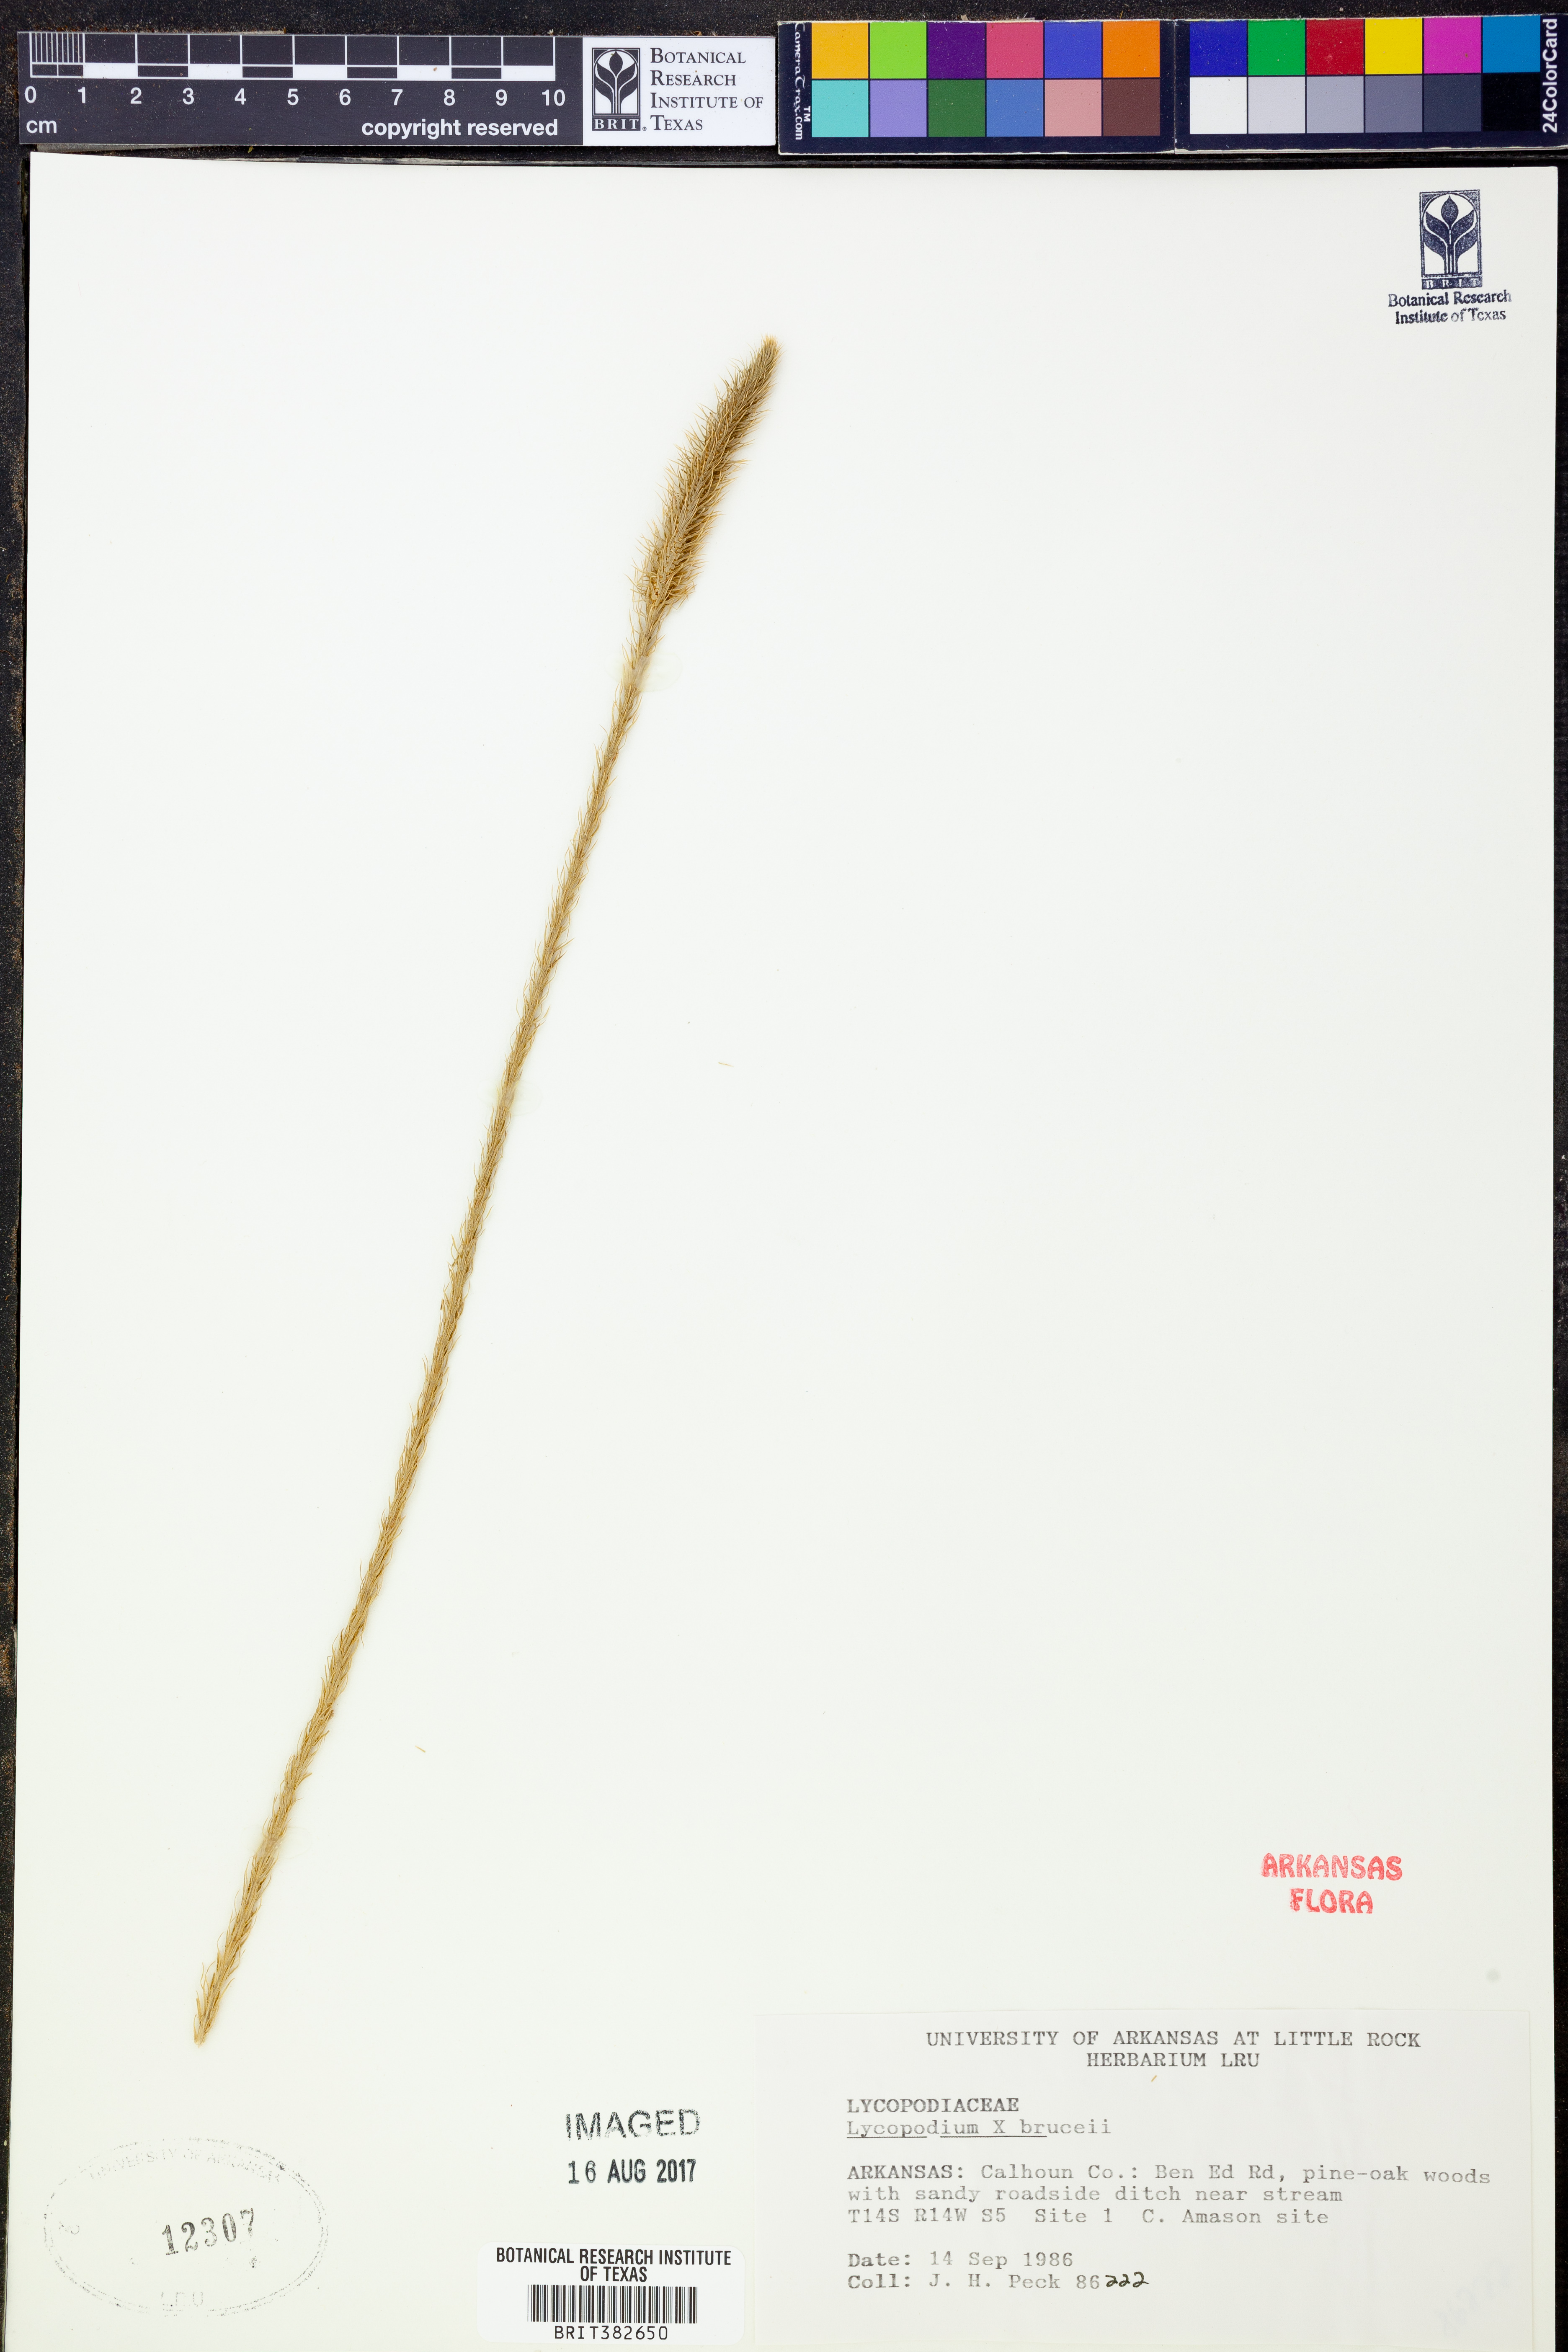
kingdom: Plantae
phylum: Tracheophyta
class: Lycopodiopsida
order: Lycopodiales
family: Lycopodiaceae
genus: Lycopodiella
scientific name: Lycopodiella brucei
